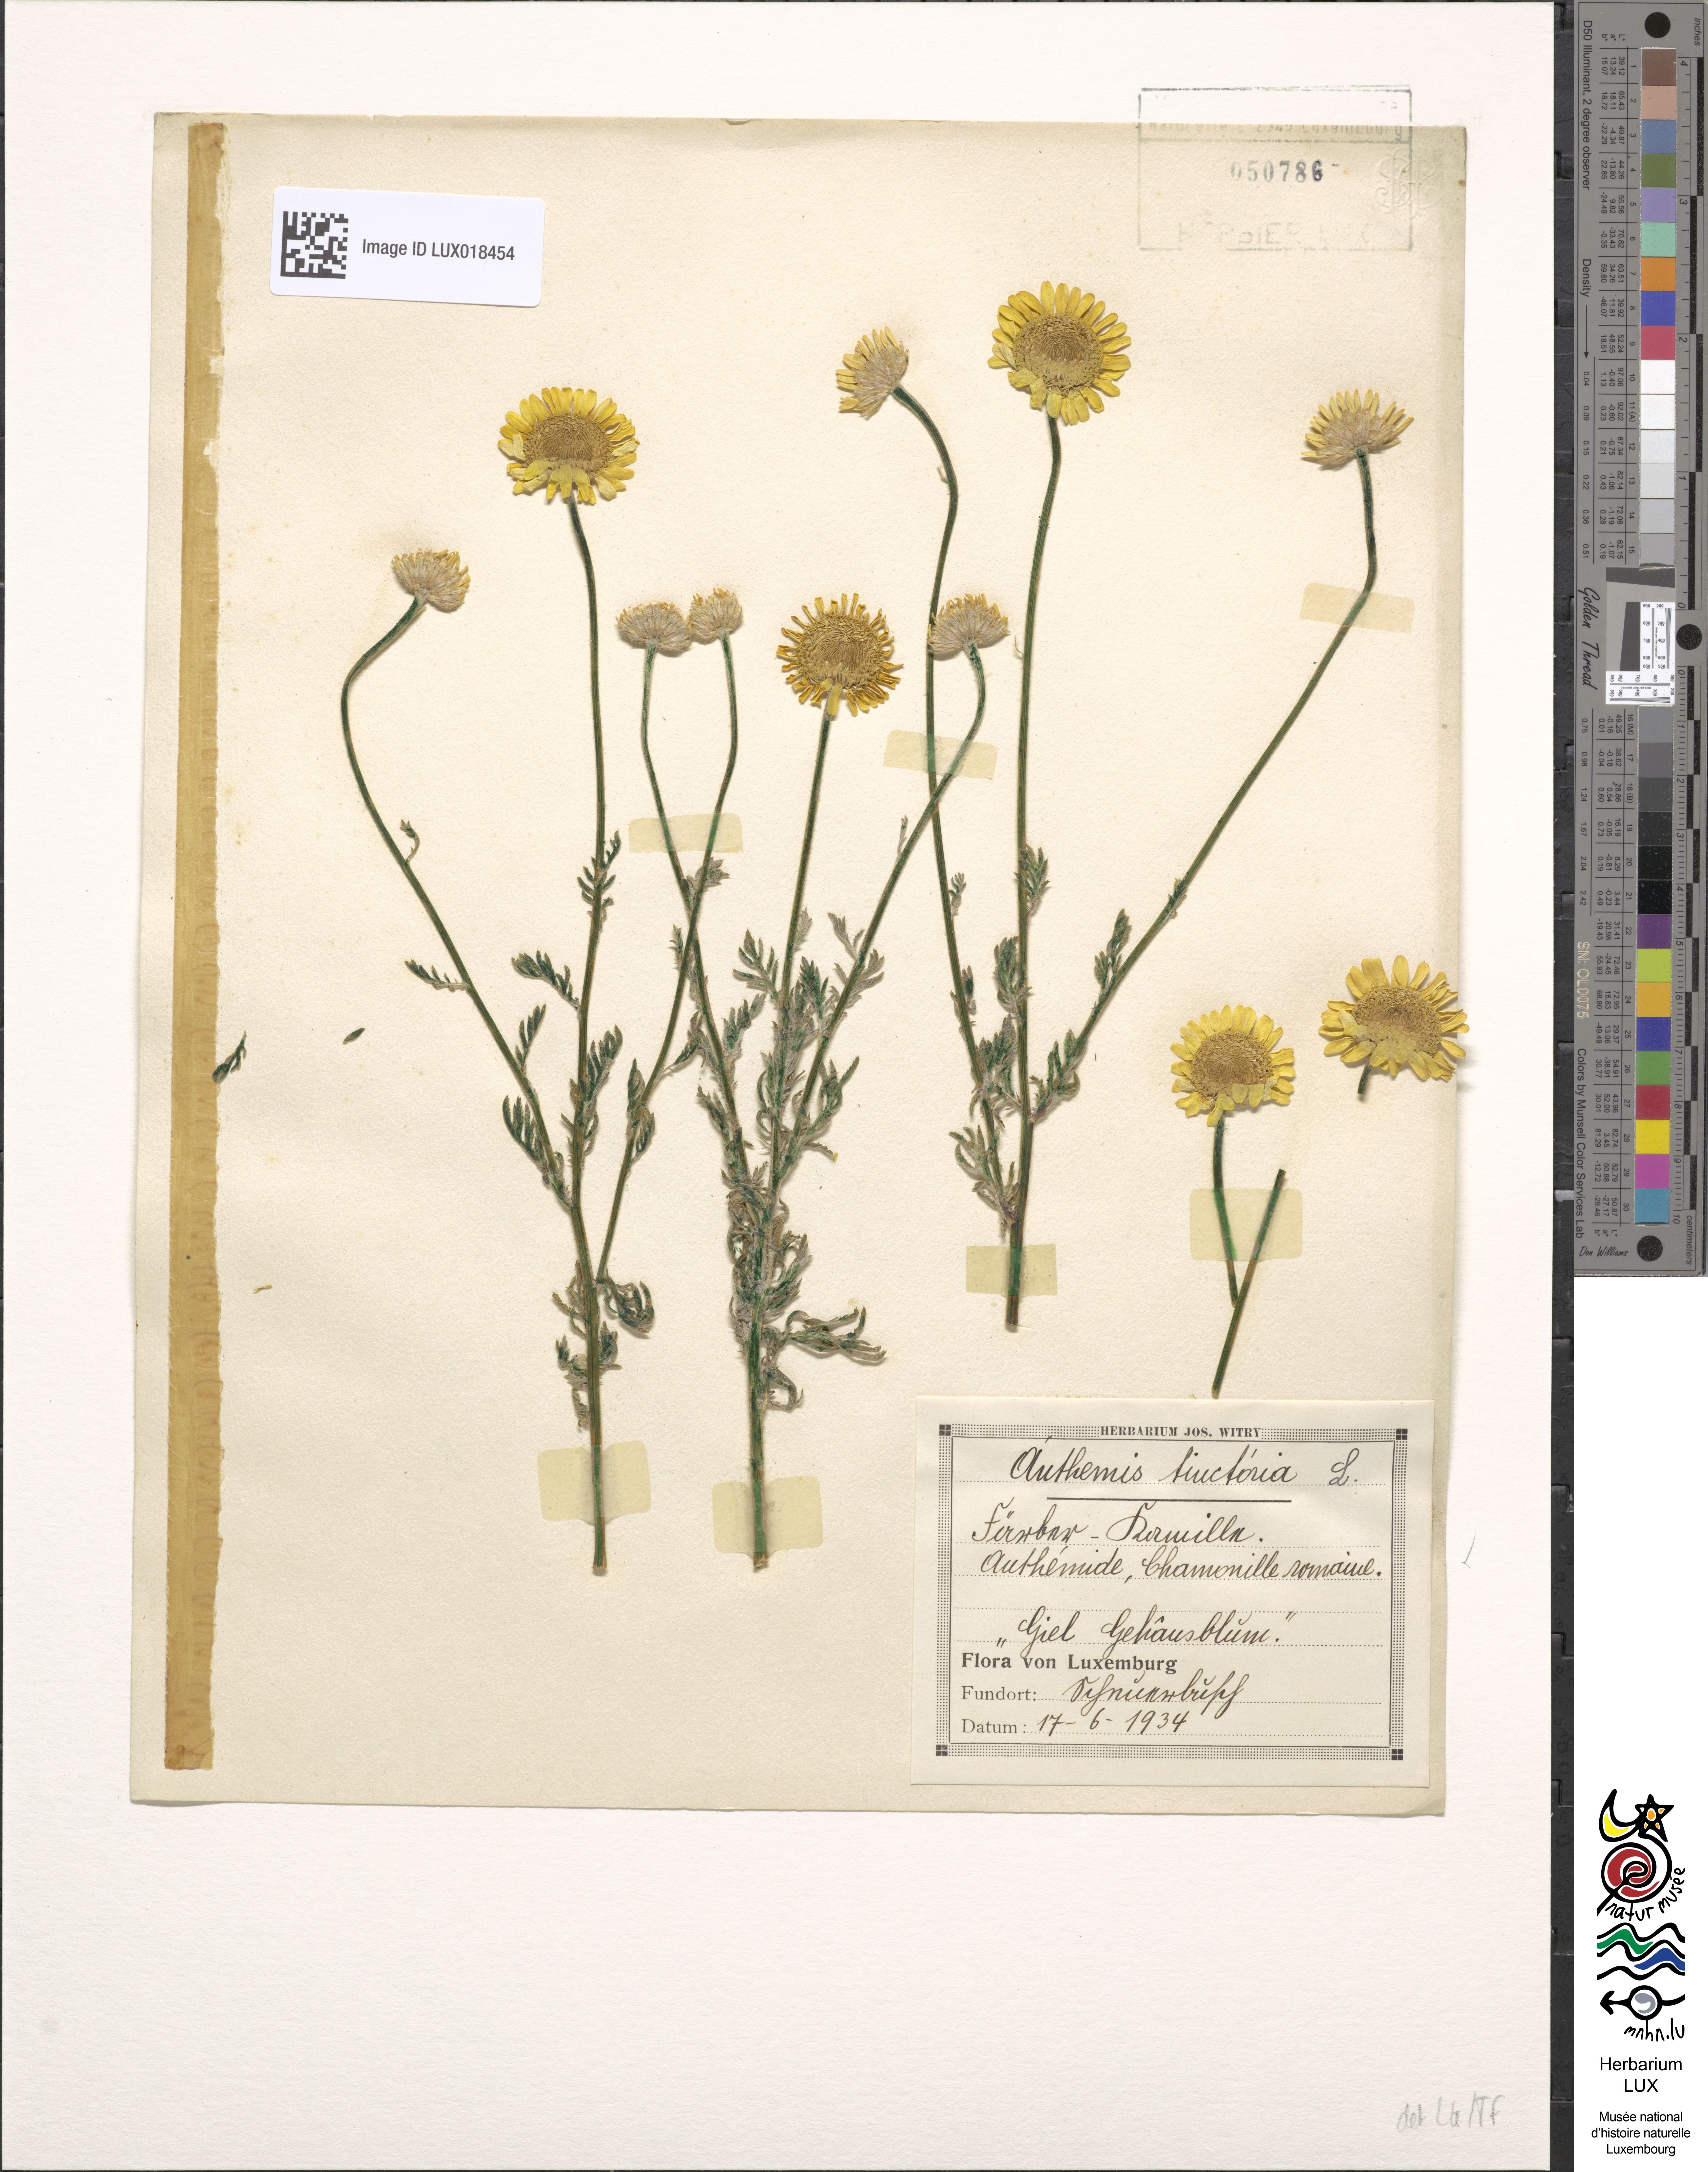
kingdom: Plantae
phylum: Tracheophyta
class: Magnoliopsida
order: Asterales
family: Asteraceae
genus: Cota
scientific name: Cota tinctoria
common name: Golden chamomile
